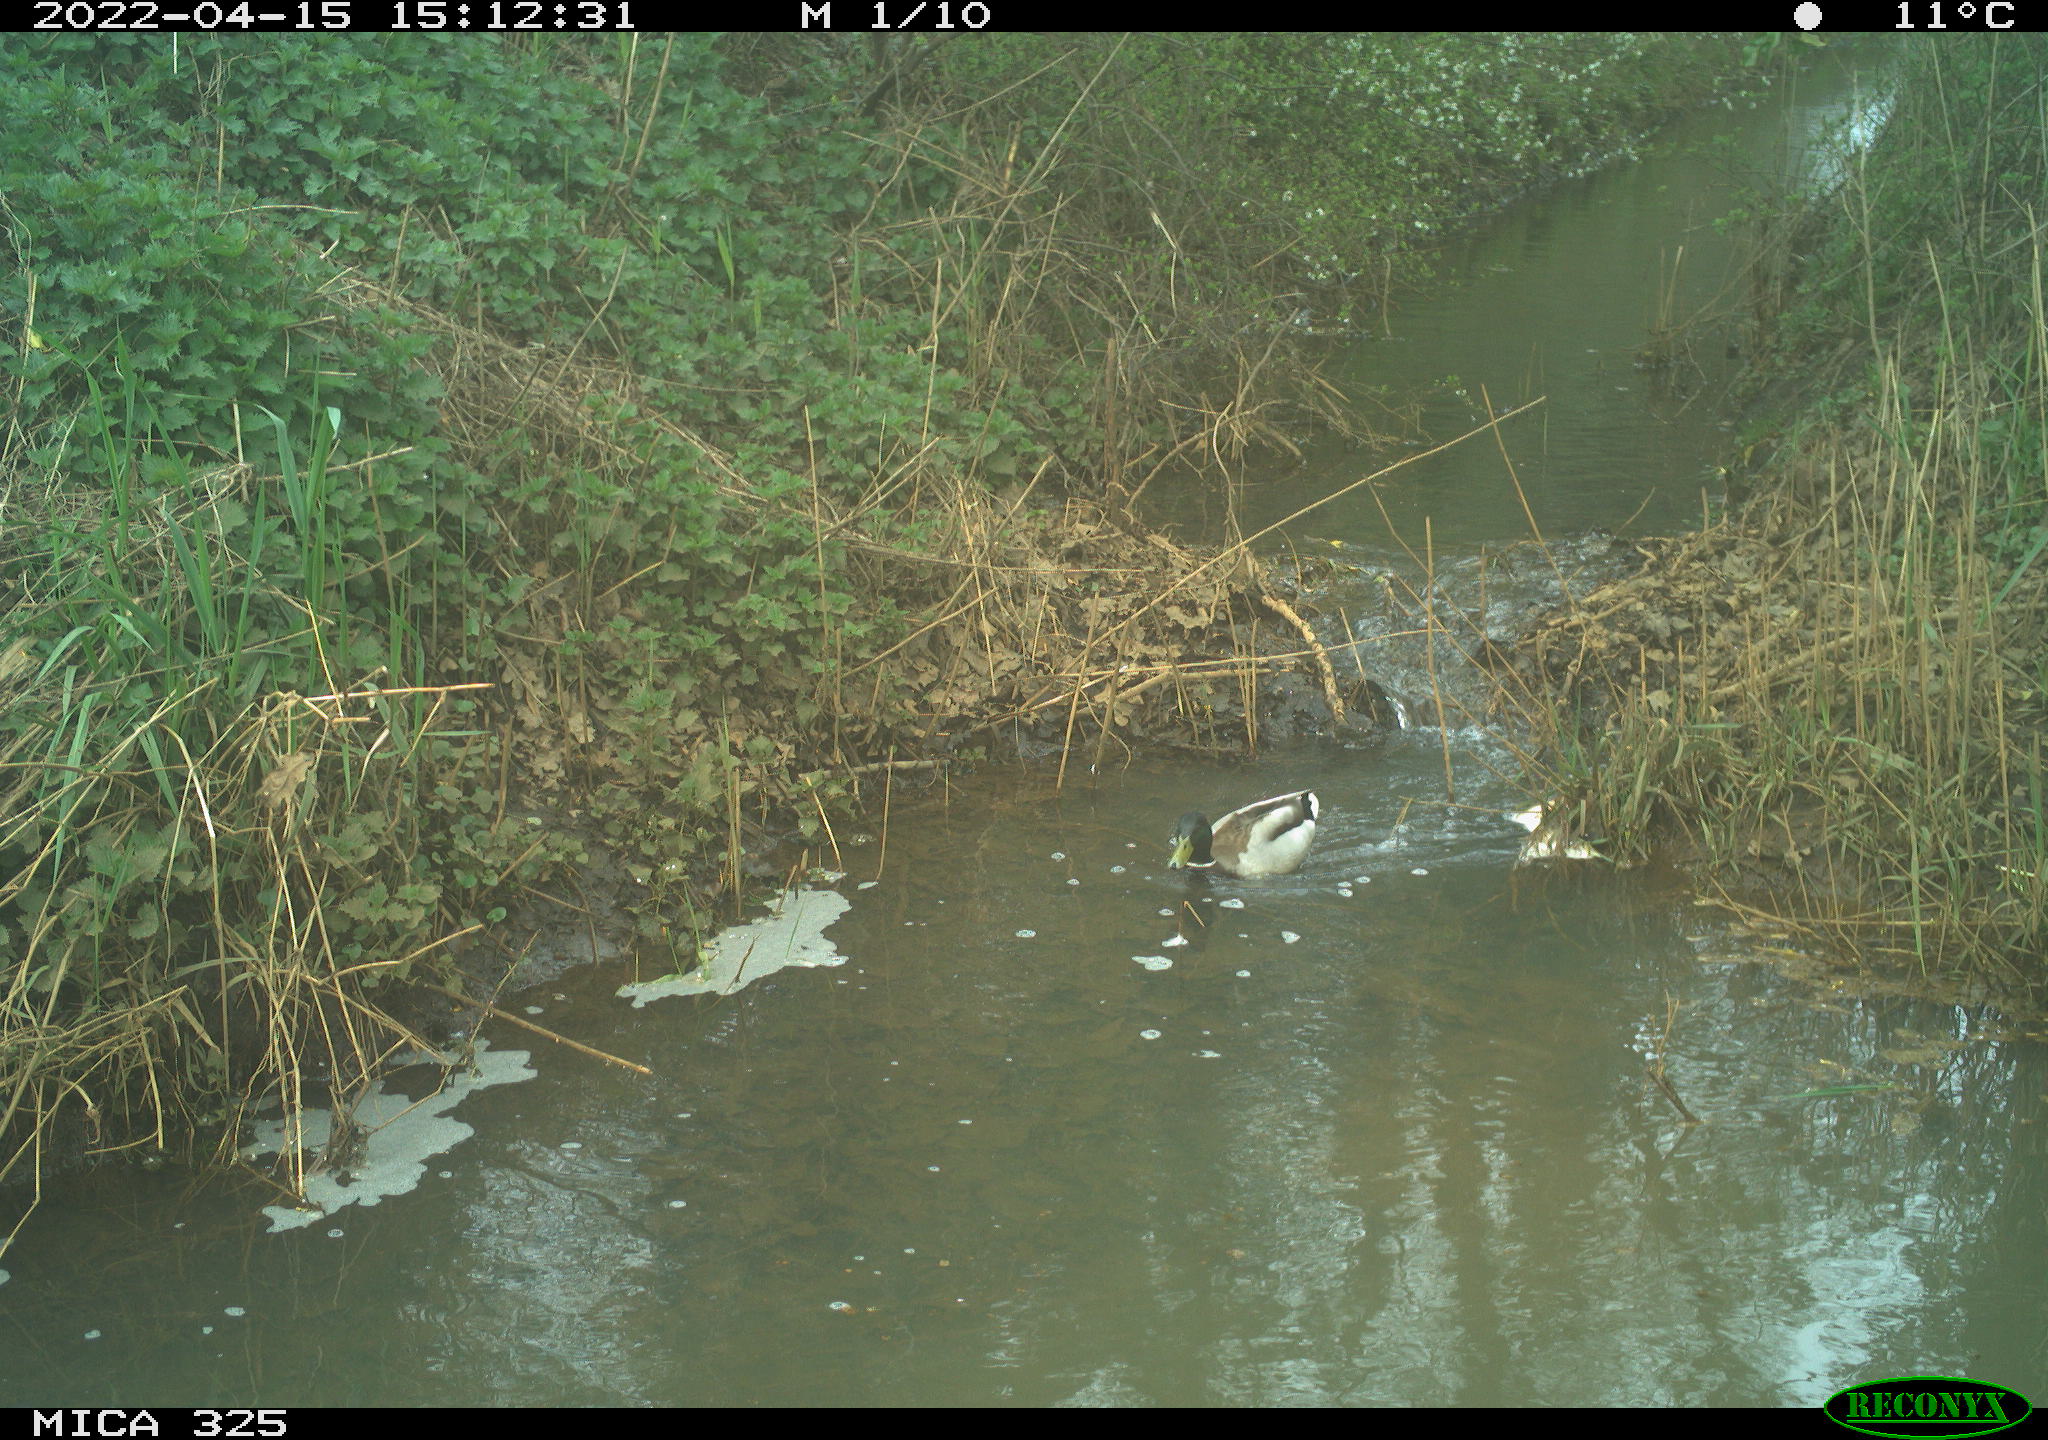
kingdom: Animalia
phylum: Chordata
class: Aves
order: Anseriformes
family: Anatidae
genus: Anas
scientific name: Anas platyrhynchos
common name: Mallard
